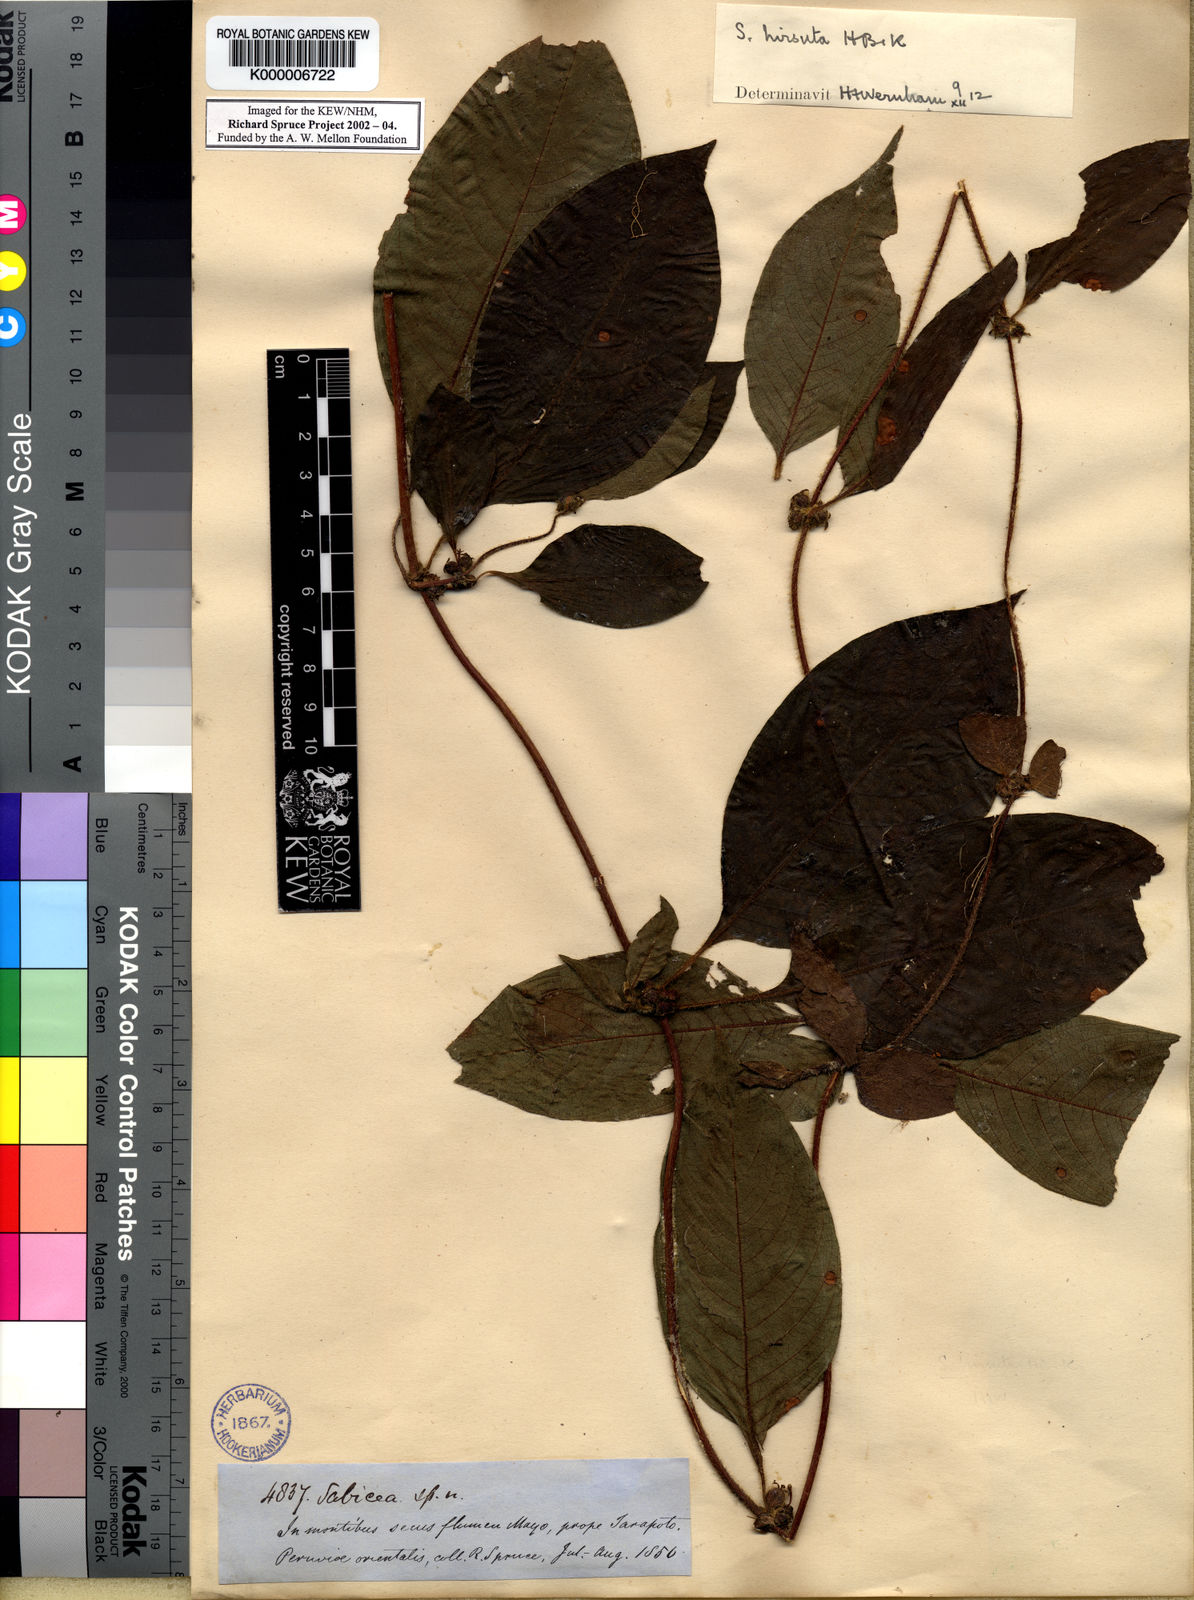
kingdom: Plantae
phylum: Tracheophyta
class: Magnoliopsida
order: Gentianales
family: Rubiaceae
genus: Sabicea
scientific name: Sabicea villosa
